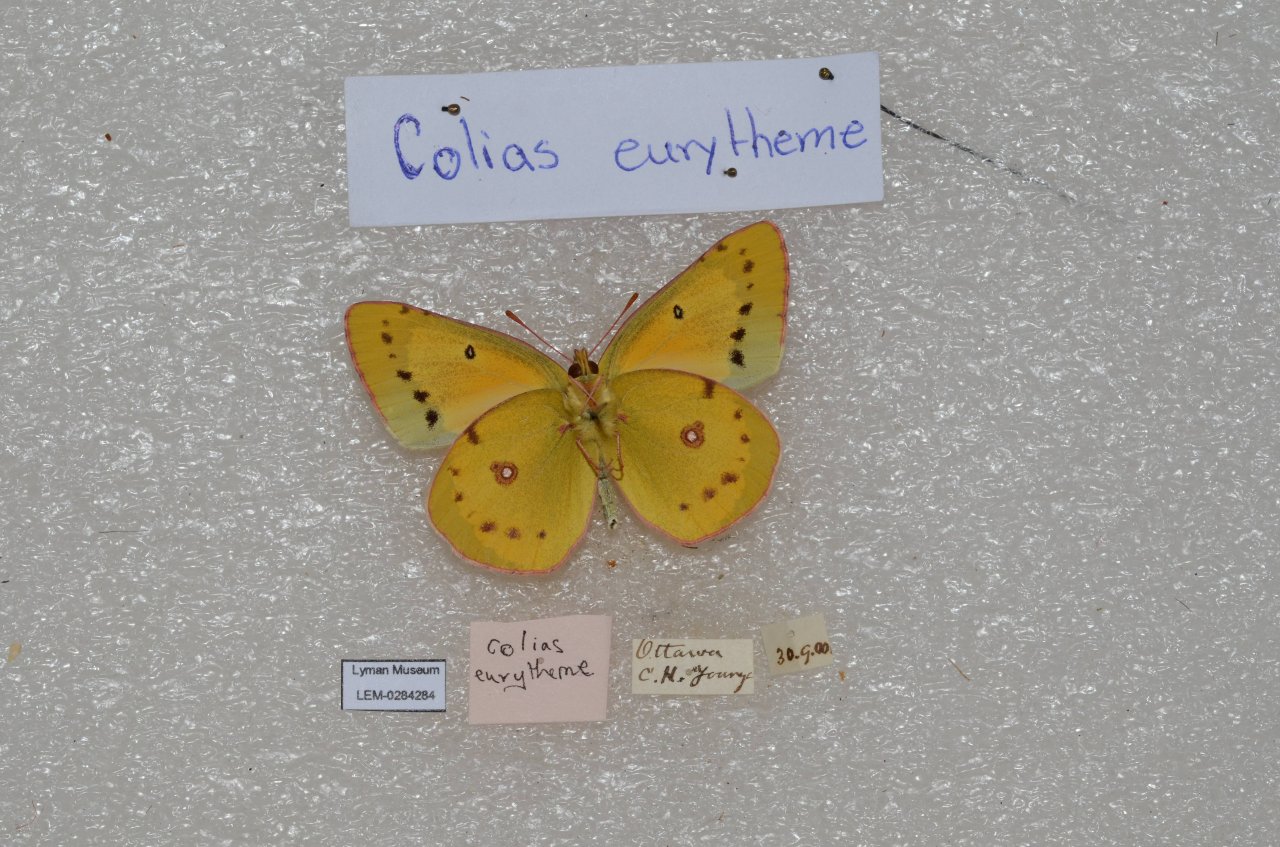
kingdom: Animalia
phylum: Arthropoda
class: Insecta
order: Lepidoptera
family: Pieridae
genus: Colias
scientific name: Colias eurytheme
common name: Orange Sulphur
